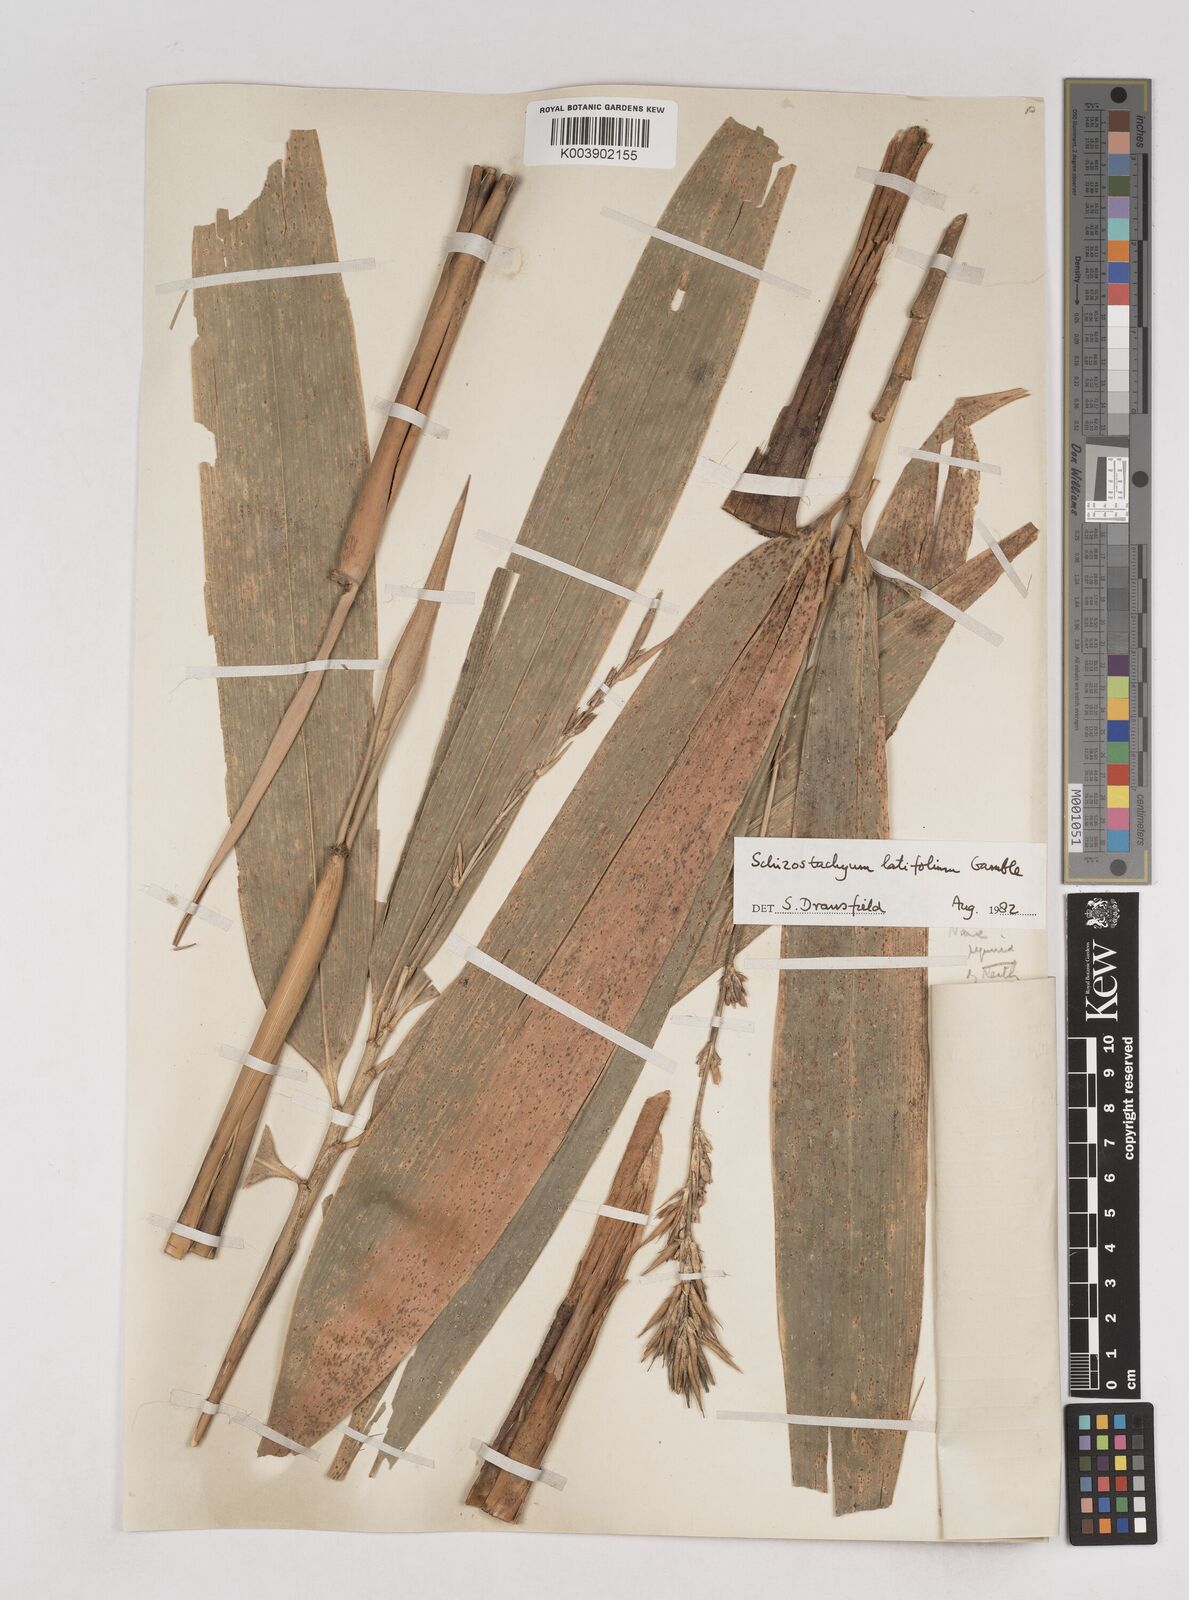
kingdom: Plantae
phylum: Tracheophyta
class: Liliopsida
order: Poales
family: Poaceae
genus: Schizostachyum
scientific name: Schizostachyum latifolium
